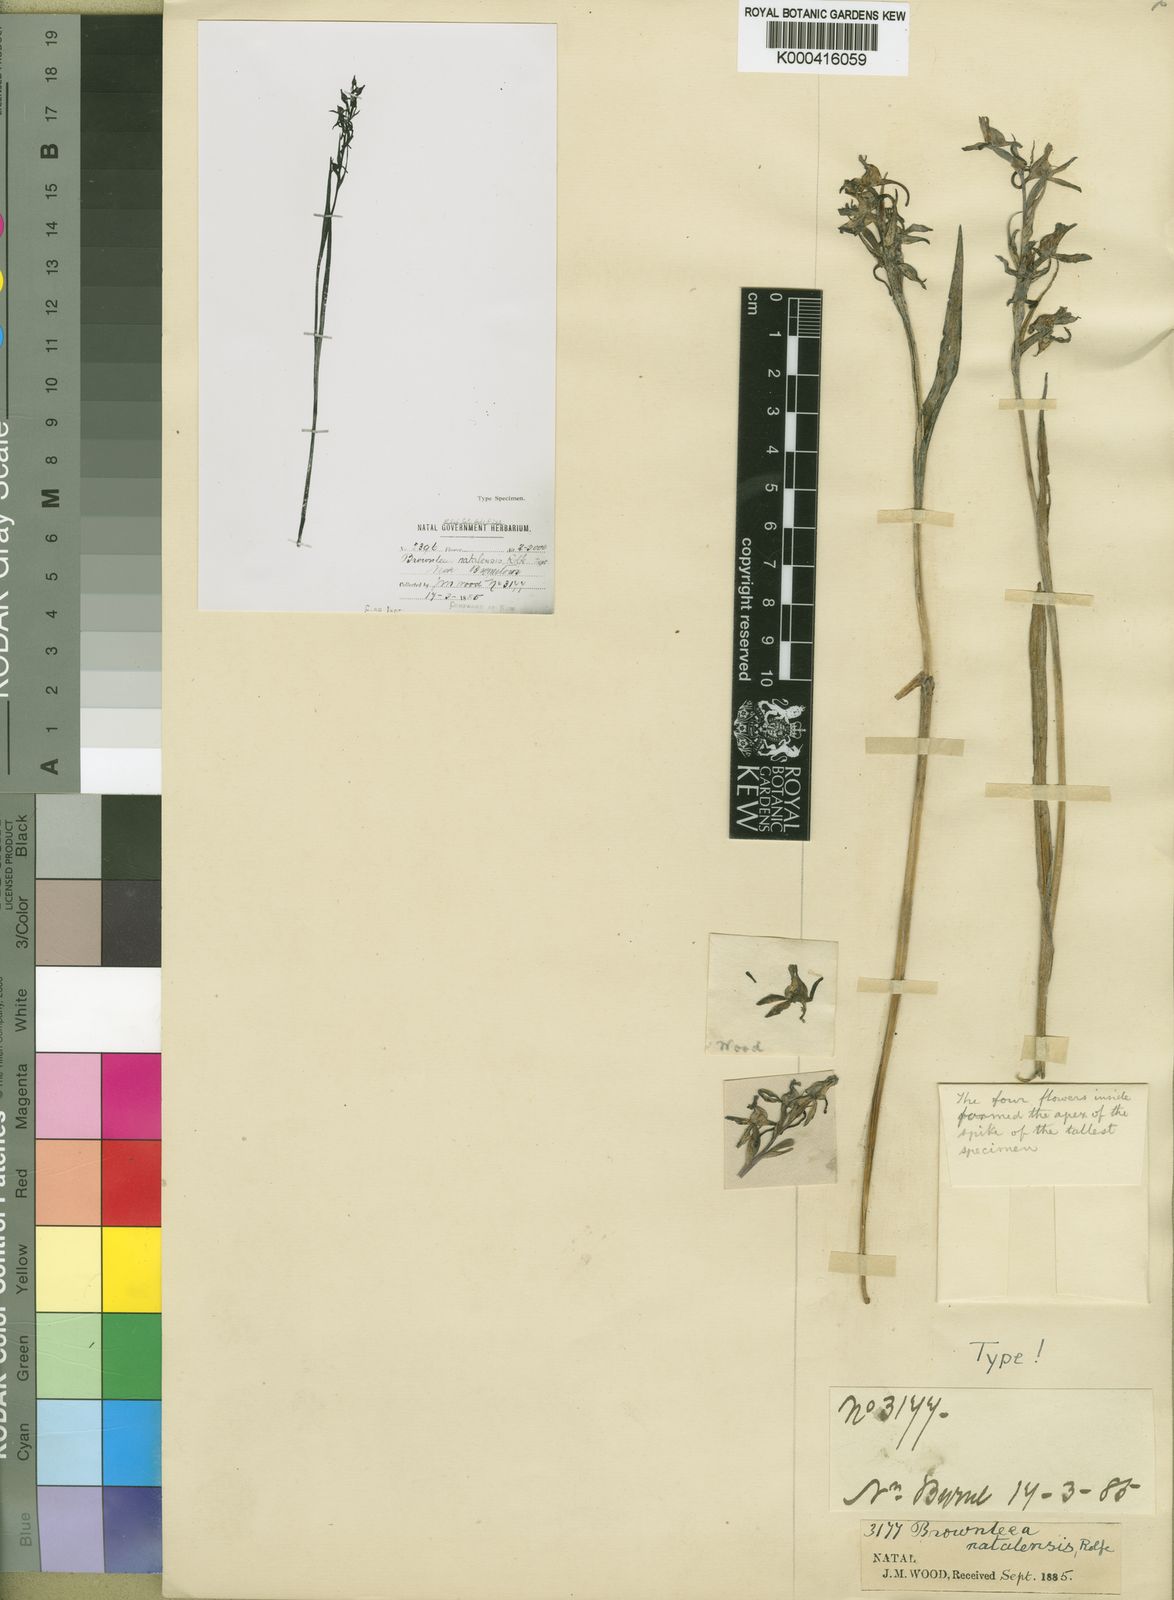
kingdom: Plantae
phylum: Tracheophyta
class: Liliopsida
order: Asparagales
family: Orchidaceae
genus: Brownleea
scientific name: Brownleea recurvata
